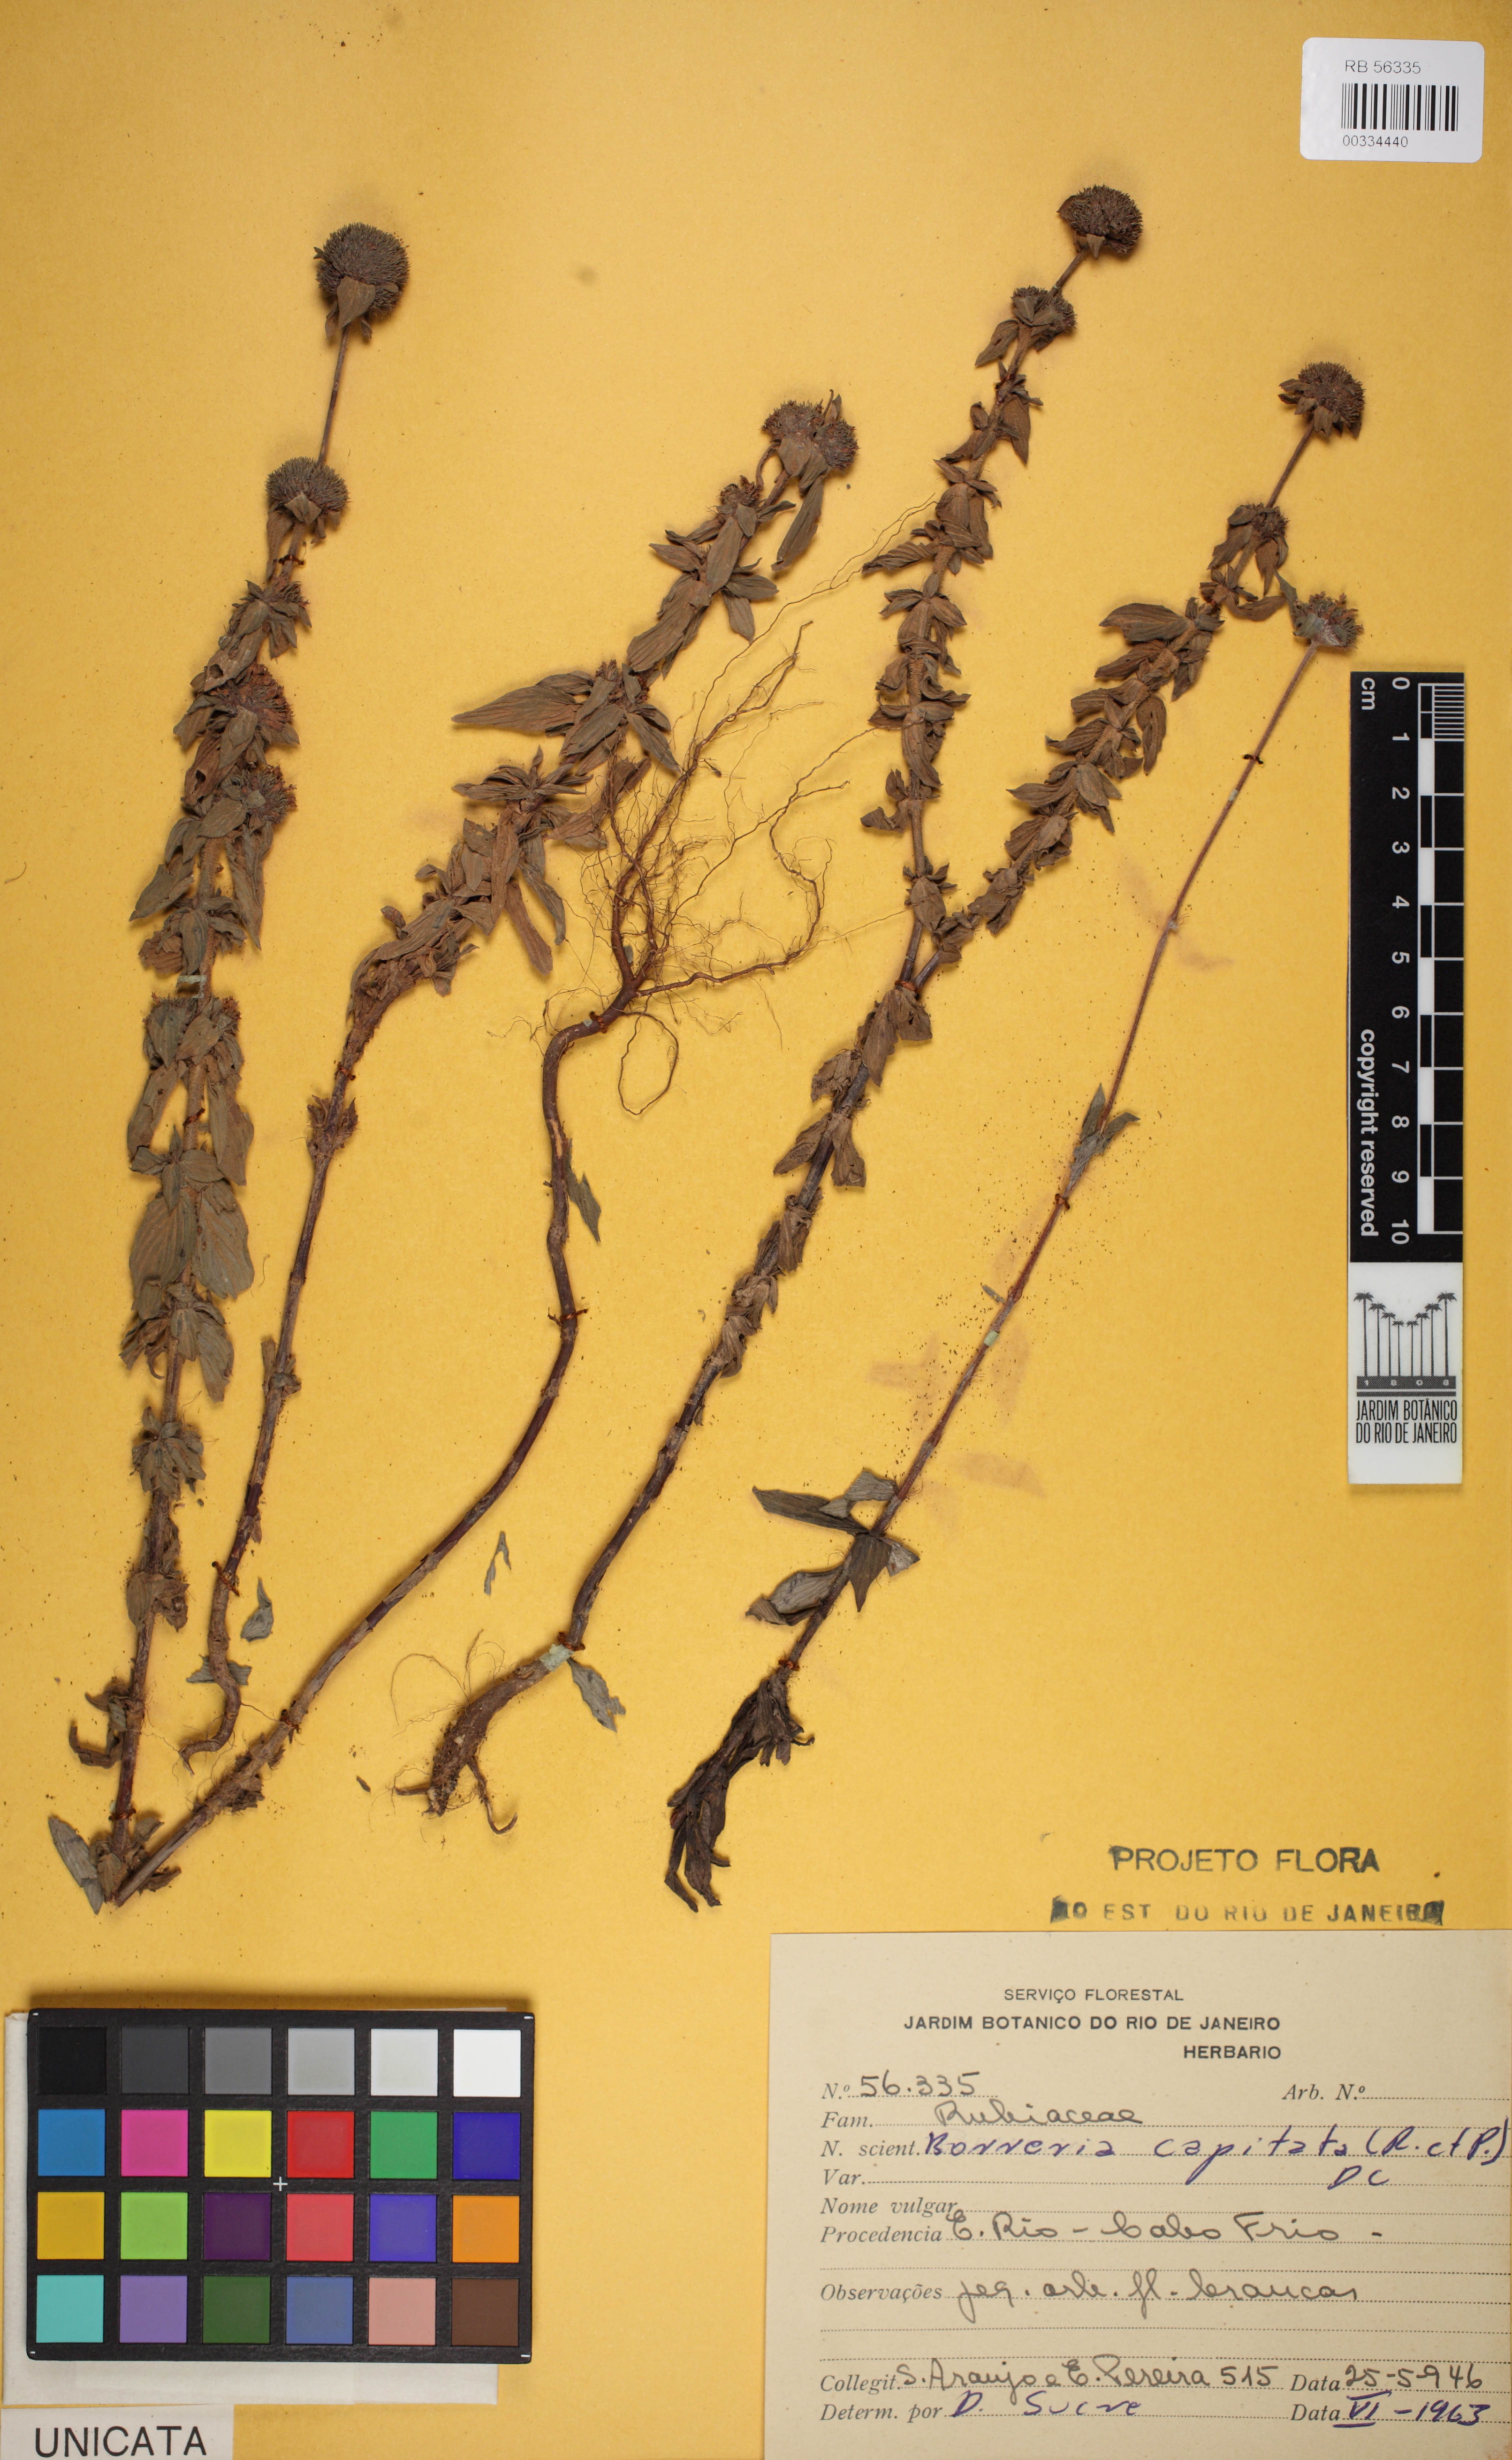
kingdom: Plantae
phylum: Tracheophyta
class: Magnoliopsida
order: Gentianales
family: Rubiaceae
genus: Spermacoce
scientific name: Spermacoce capitata
